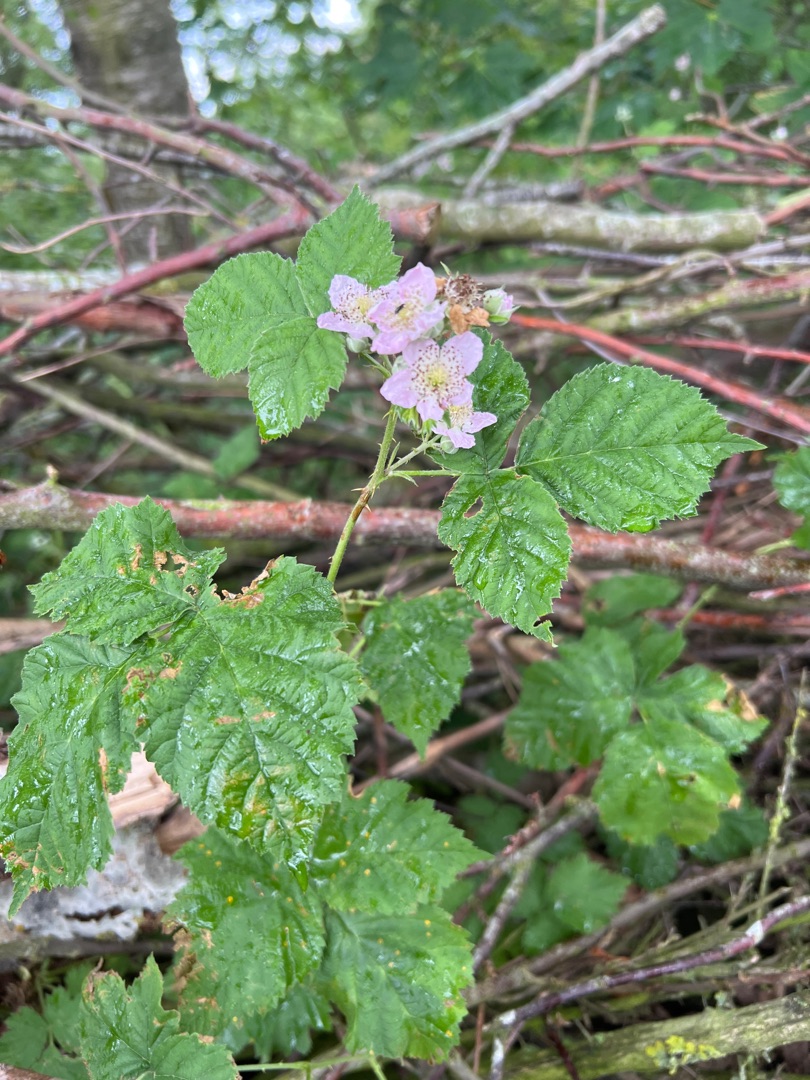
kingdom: Plantae
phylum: Tracheophyta
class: Magnoliopsida
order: Rosales
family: Rosaceae
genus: Rubus
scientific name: Rubus
